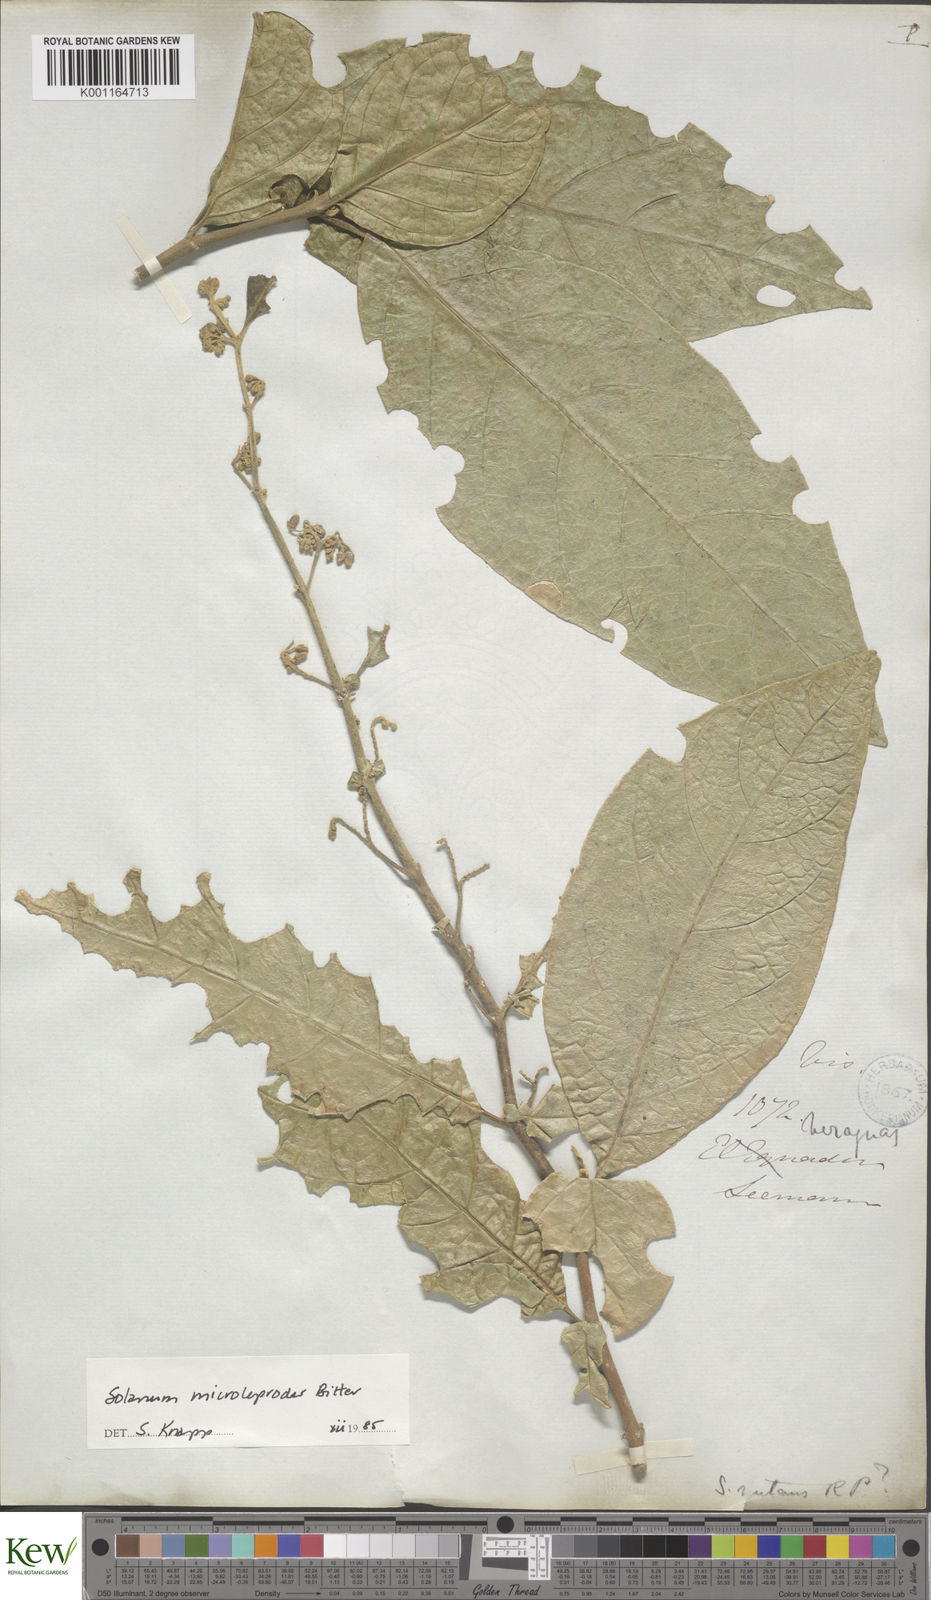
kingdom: Plantae
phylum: Tracheophyta
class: Magnoliopsida
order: Solanales
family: Solanaceae
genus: Solanum
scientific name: Solanum microleprodes
